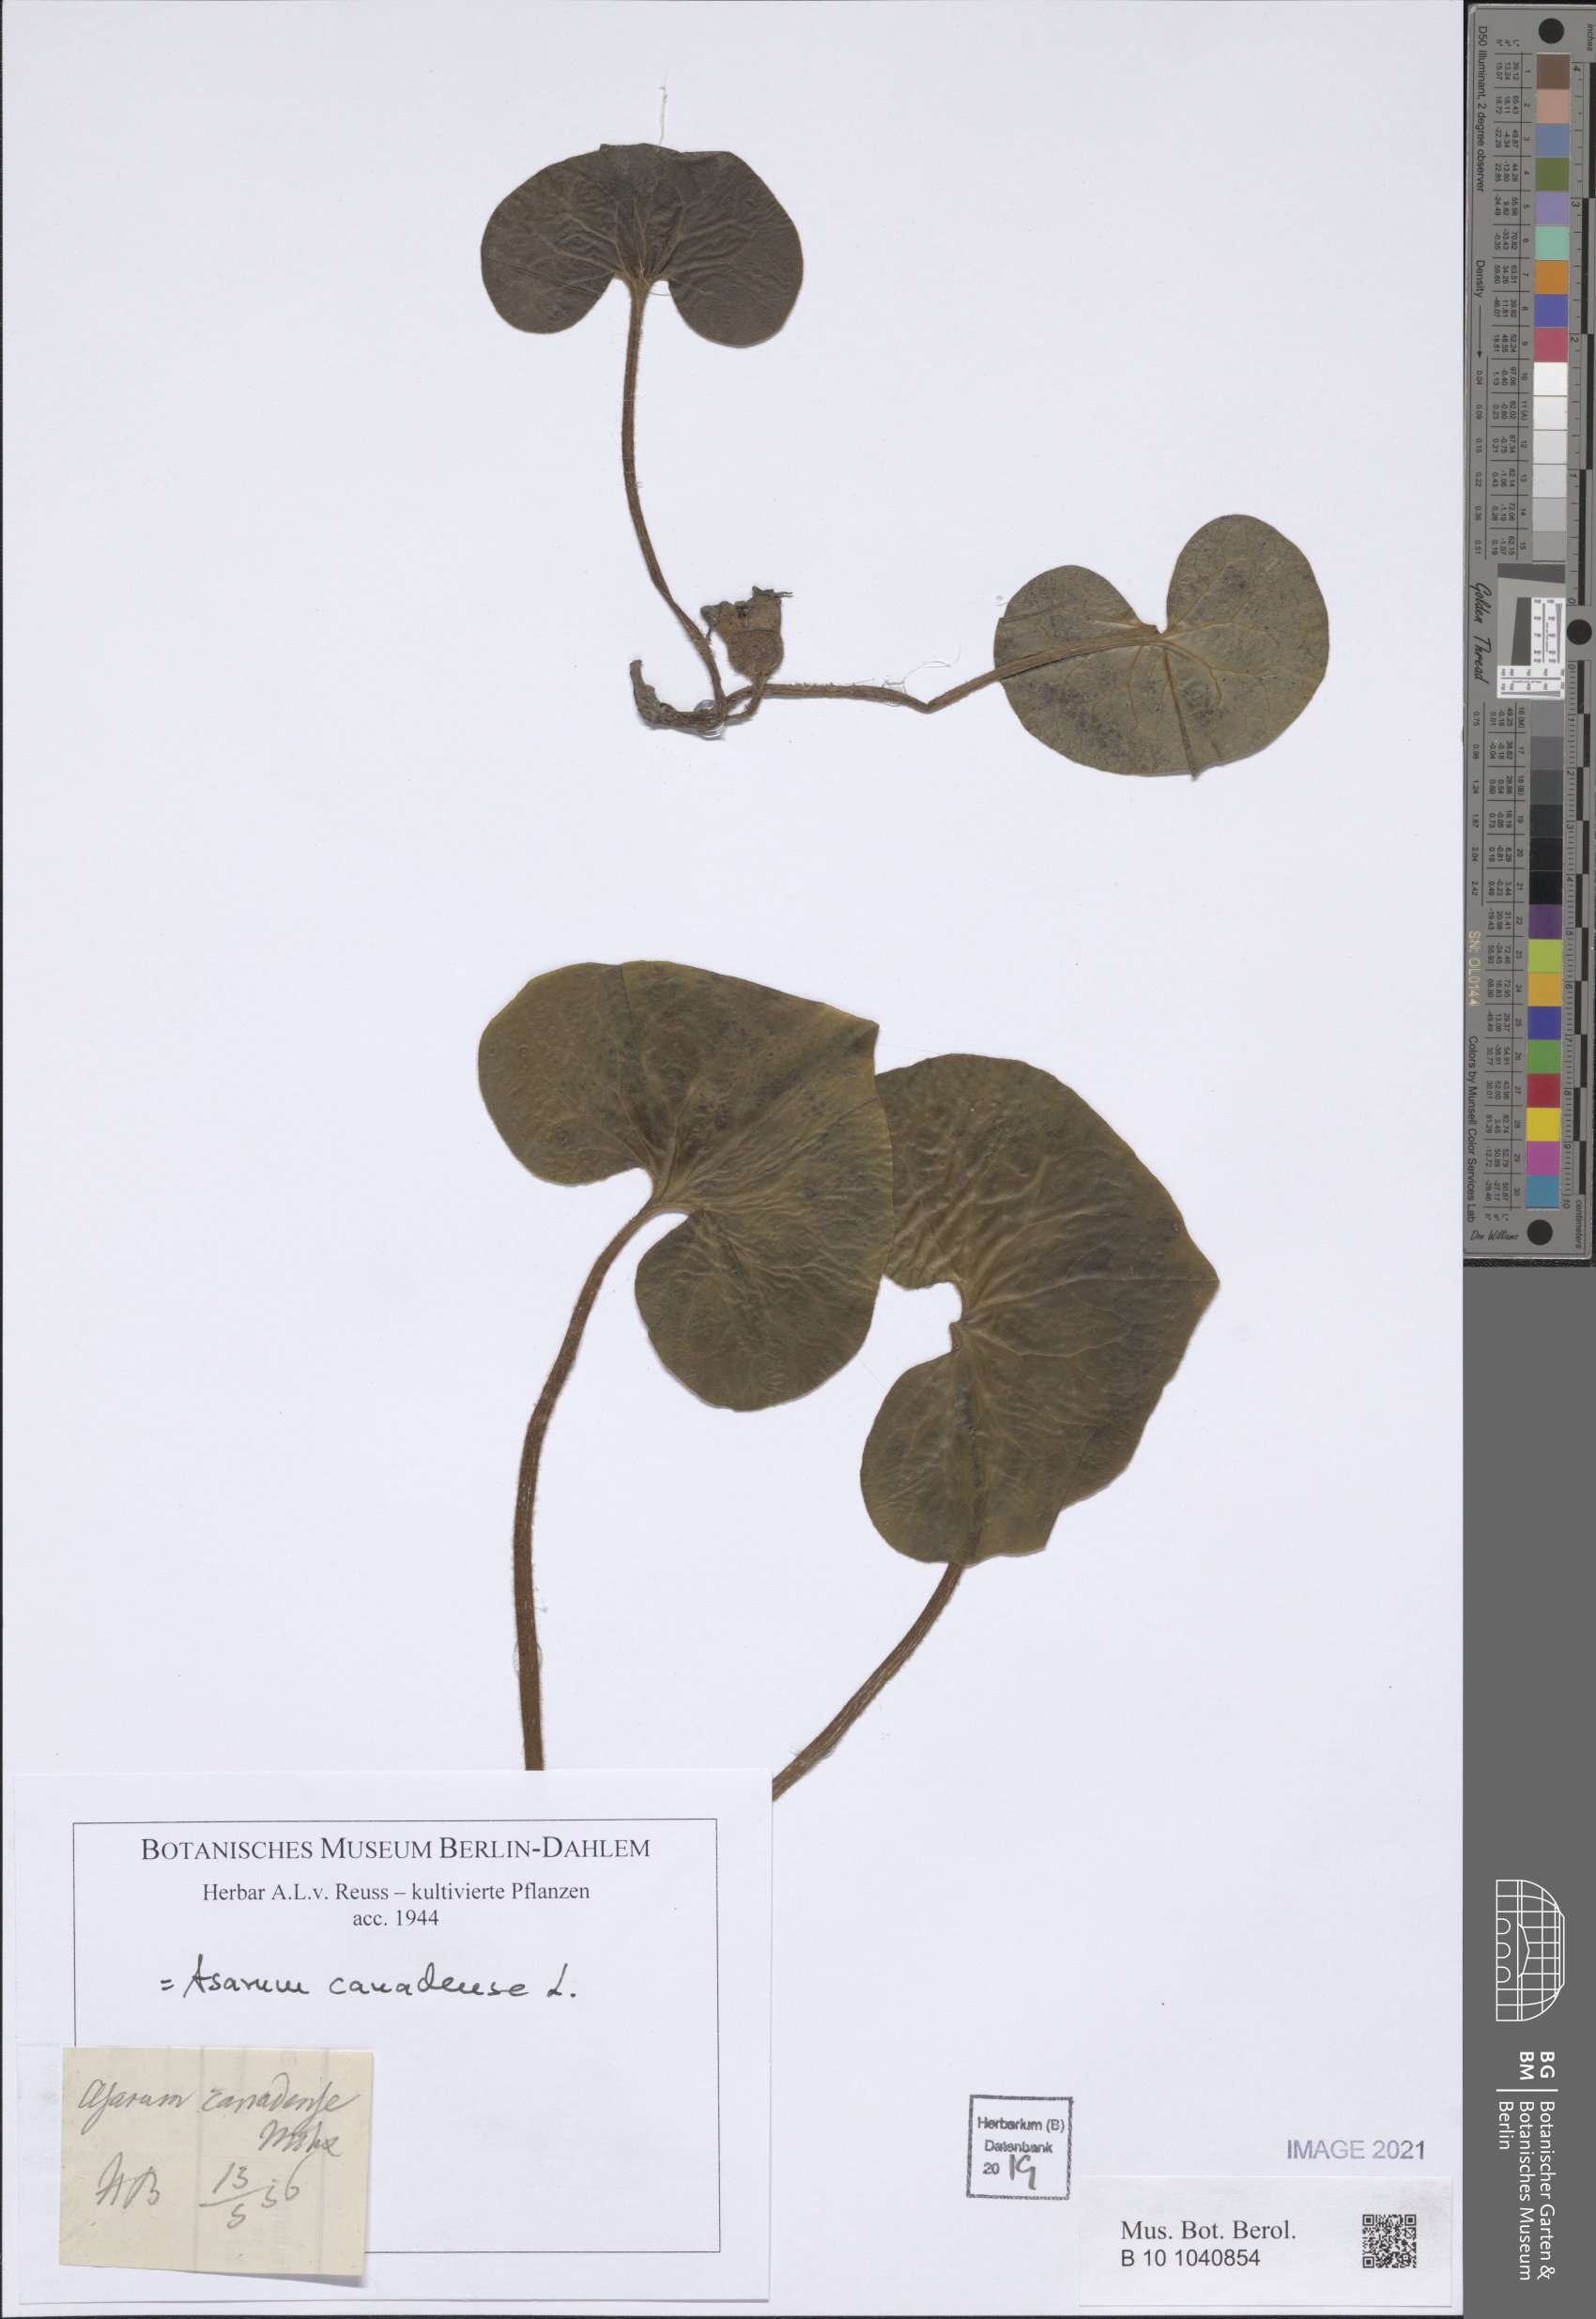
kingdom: Plantae
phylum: Tracheophyta
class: Magnoliopsida
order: Piperales
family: Aristolochiaceae
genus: Asarum
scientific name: Asarum canadense
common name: Wild ginger
